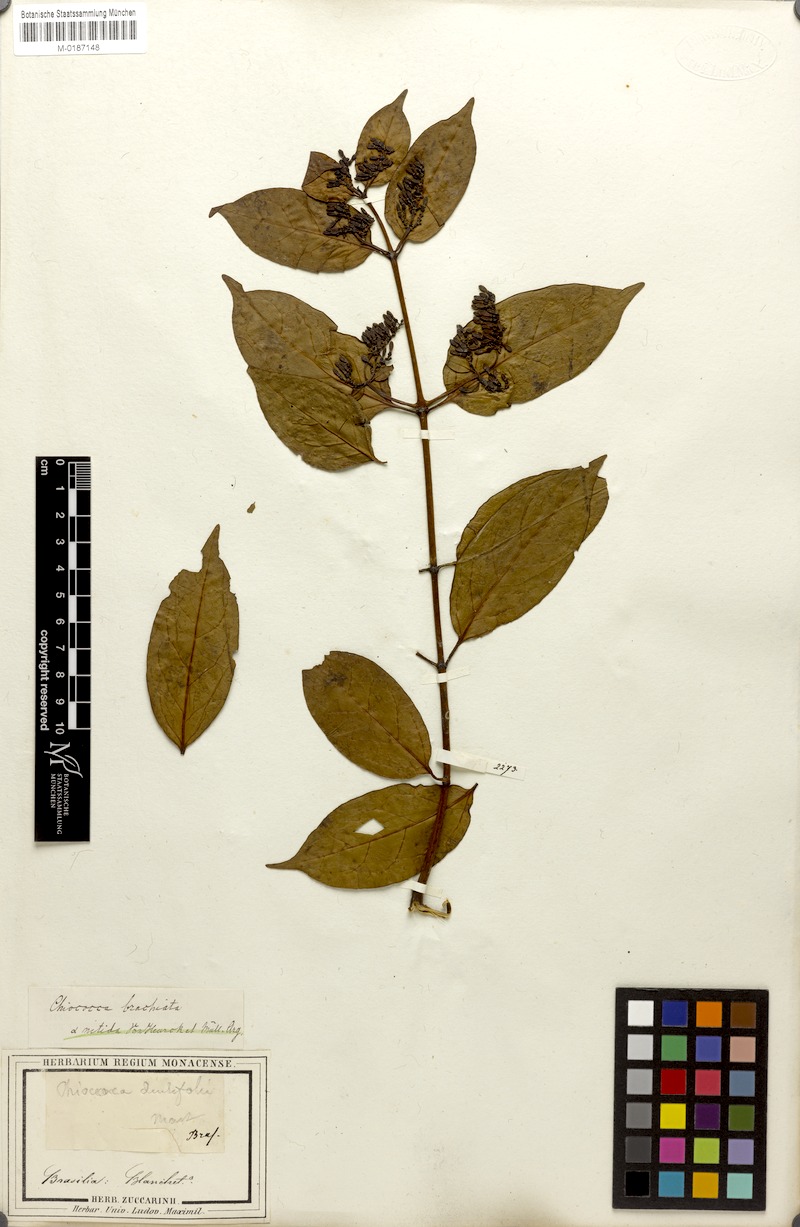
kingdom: Plantae
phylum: Tracheophyta
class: Magnoliopsida
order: Gentianales
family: Rubiaceae
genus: Chiococca
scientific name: Chiococca alba
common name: Snowberry
